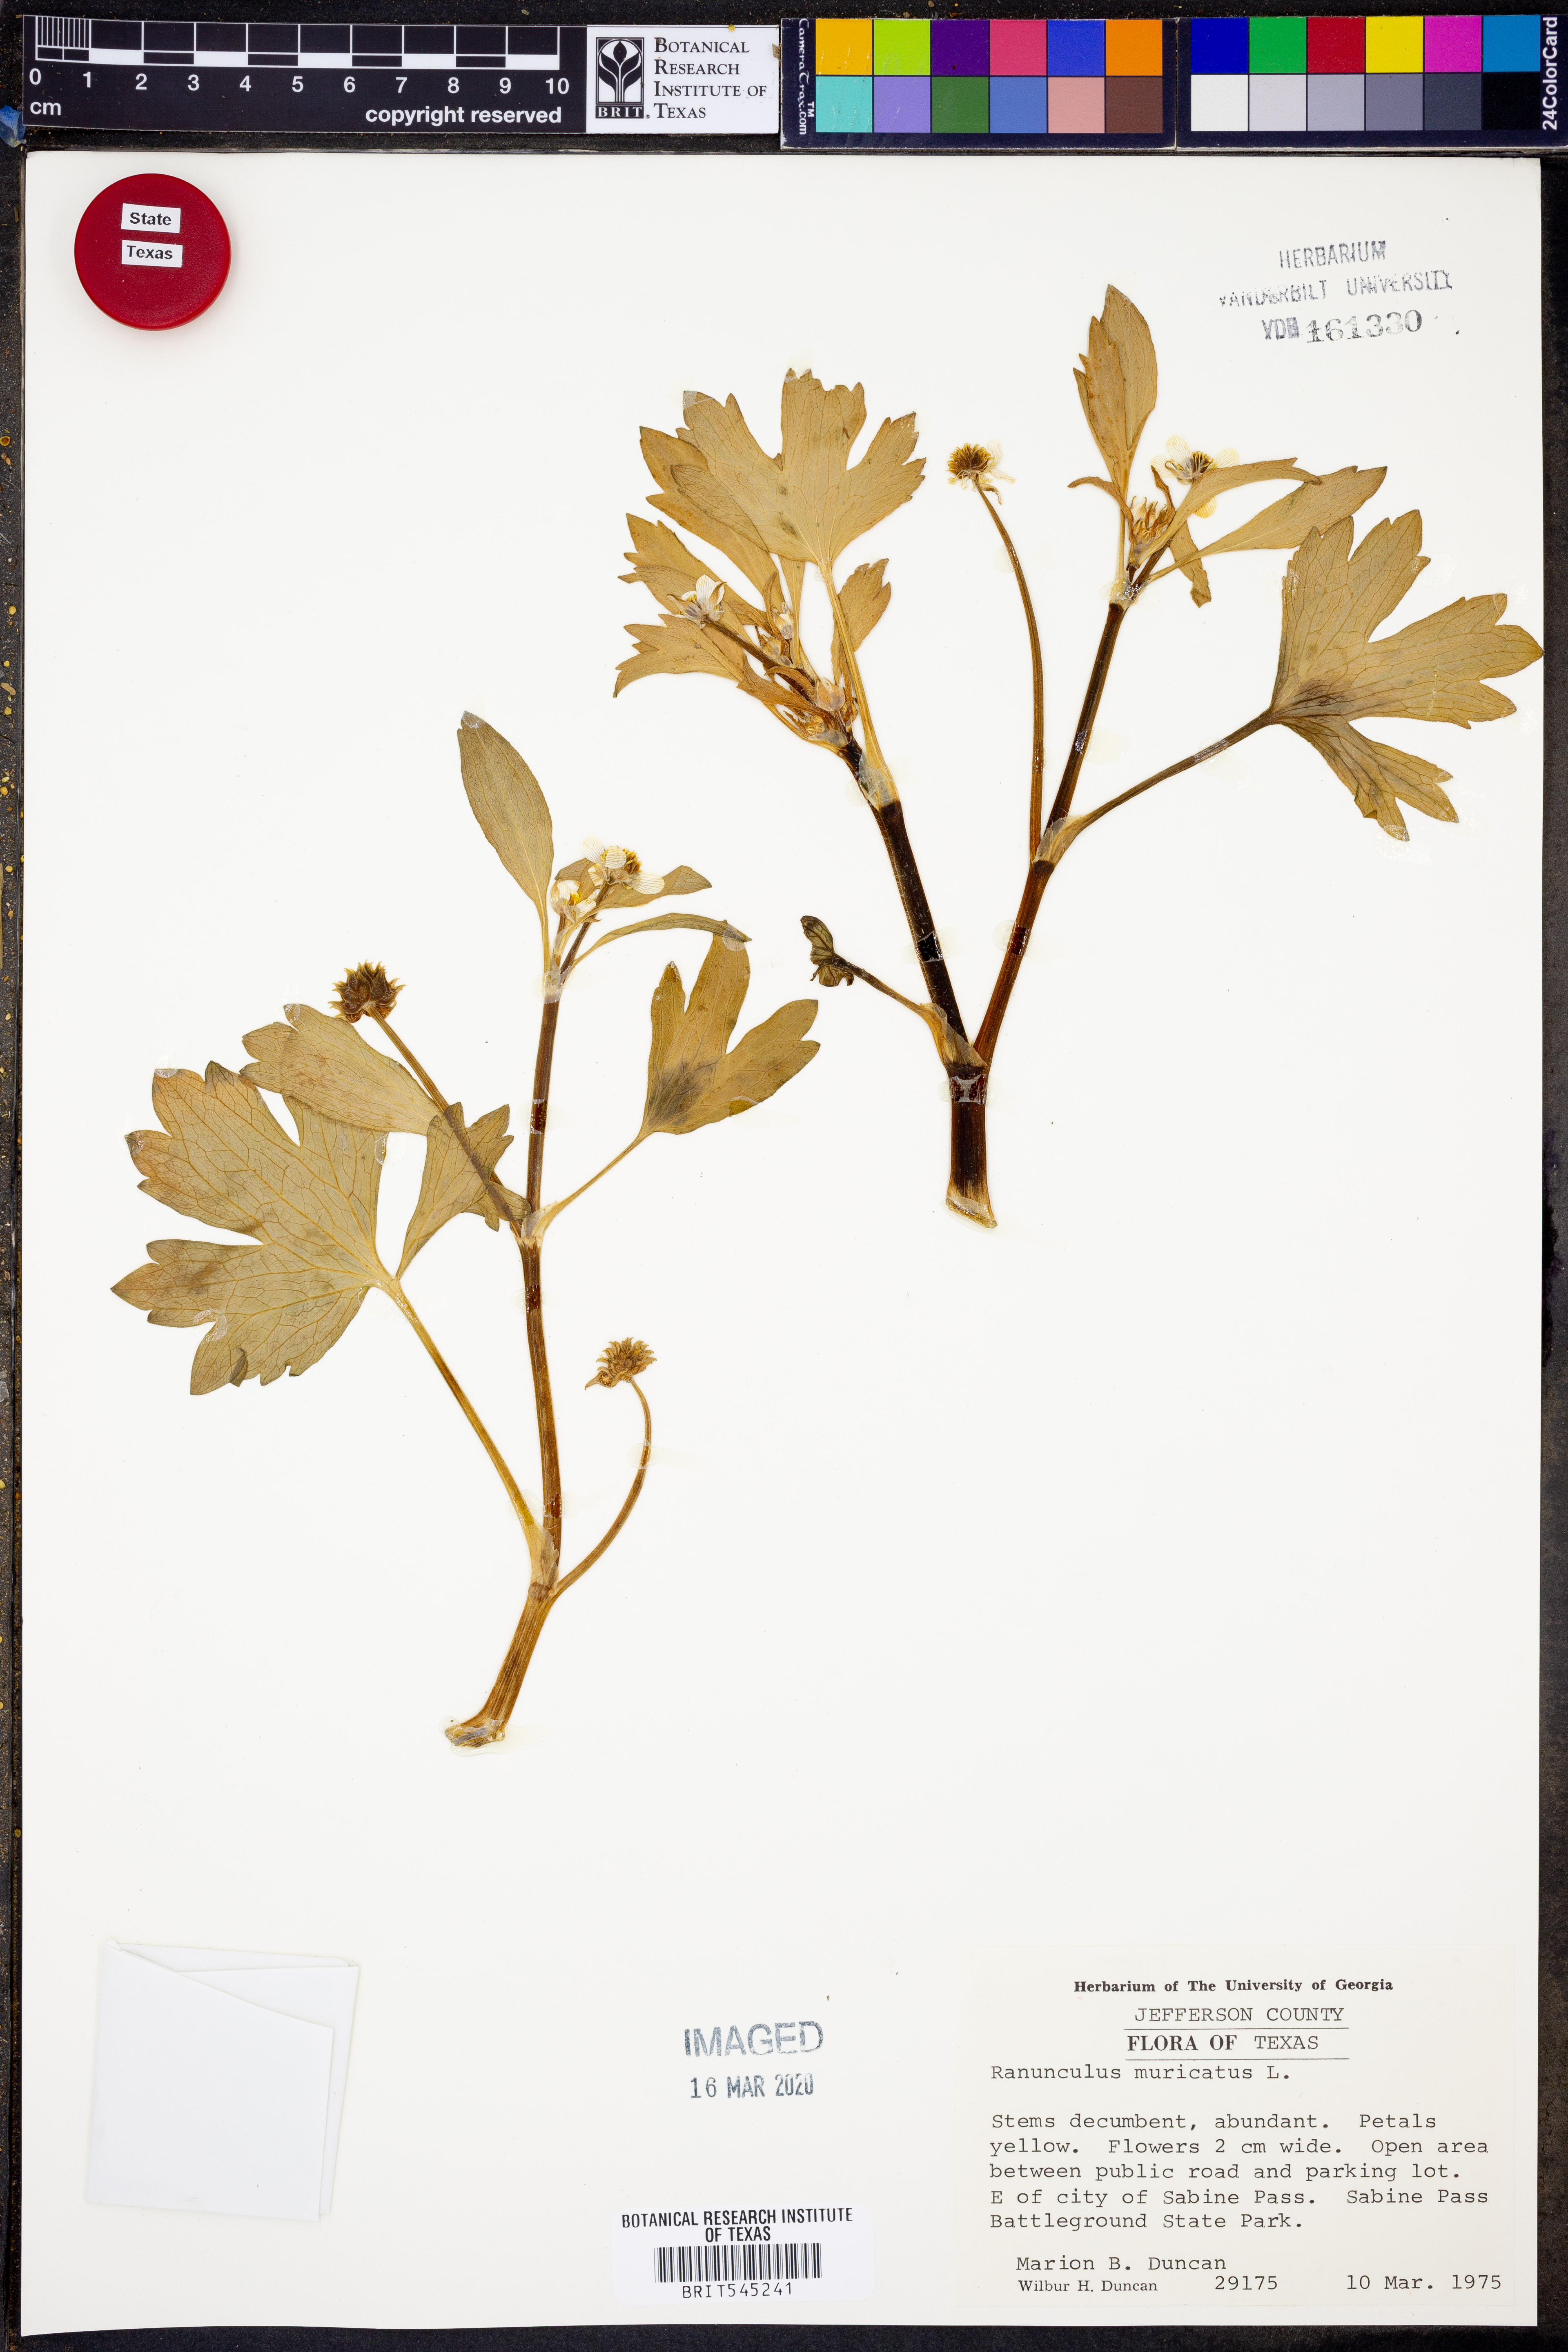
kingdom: Plantae
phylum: Tracheophyta
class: Magnoliopsida
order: Ranunculales
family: Ranunculaceae
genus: Ranunculus
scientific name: Ranunculus muricatus
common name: Rough-fruited buttercup
